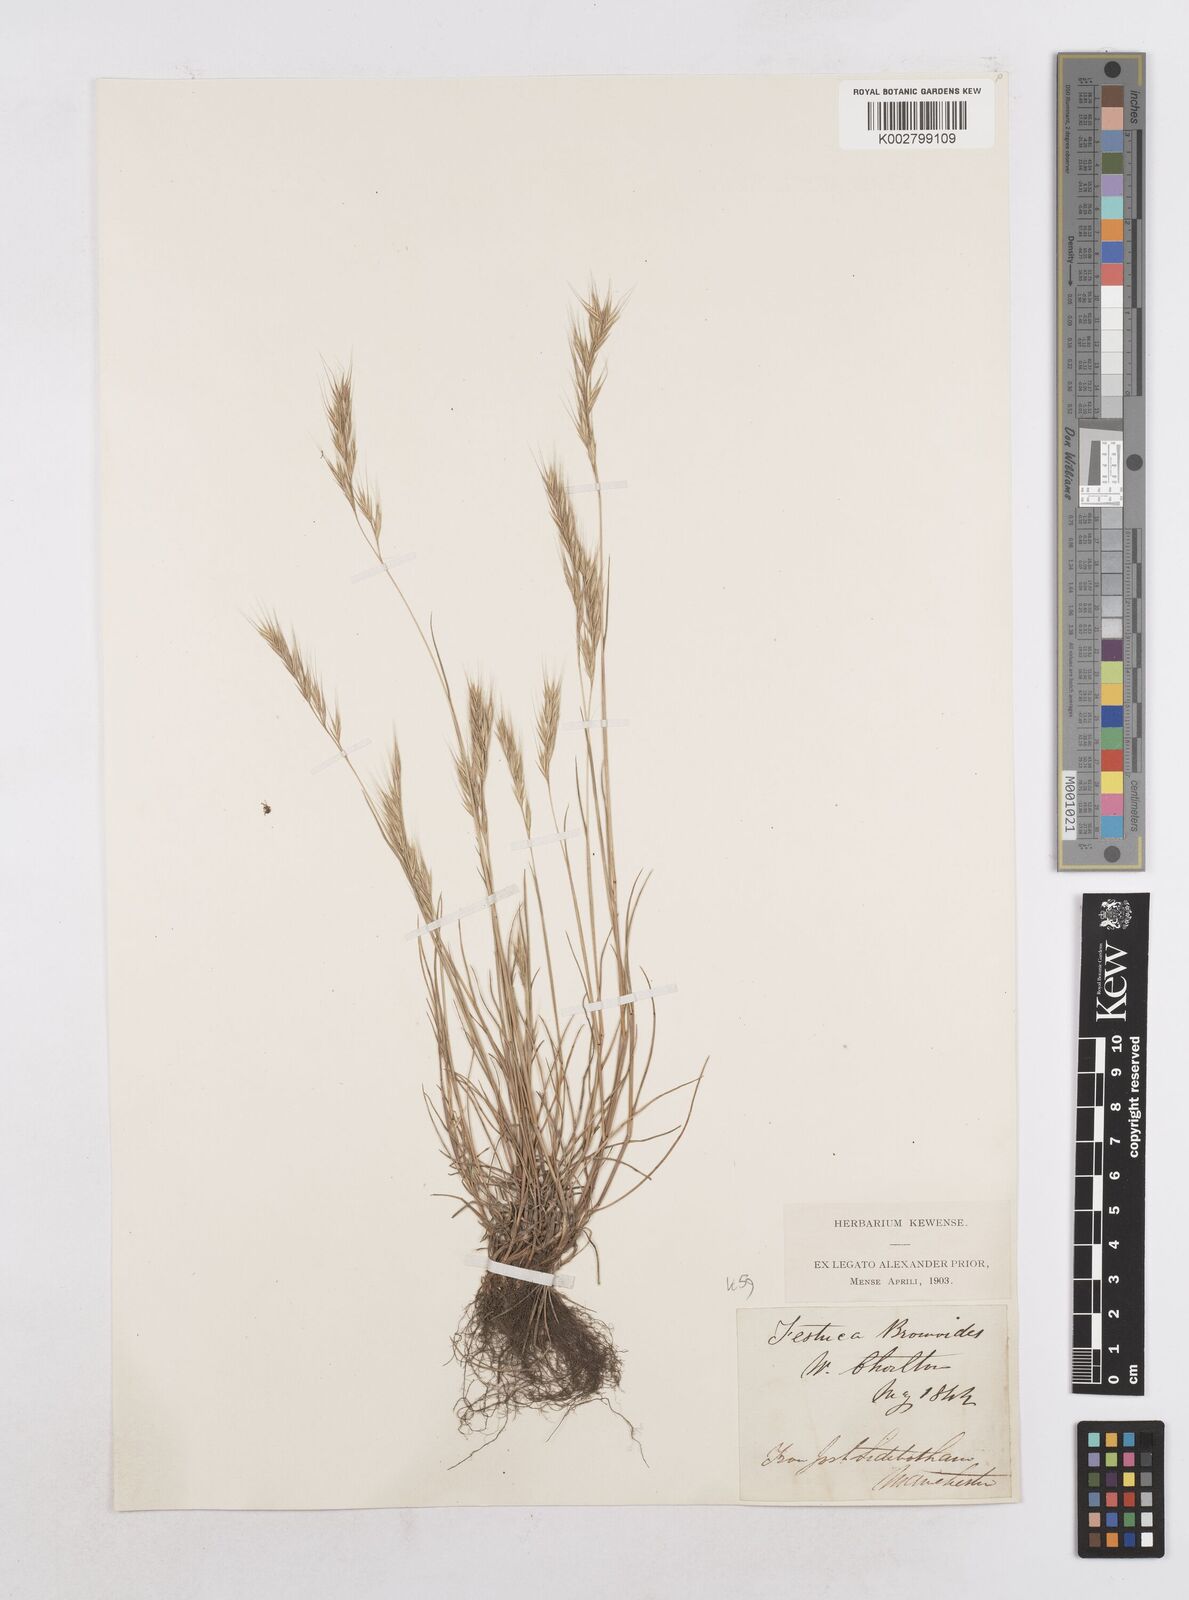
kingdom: Plantae
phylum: Tracheophyta
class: Liliopsida
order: Poales
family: Poaceae
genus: Festuca
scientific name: Festuca bromoides
